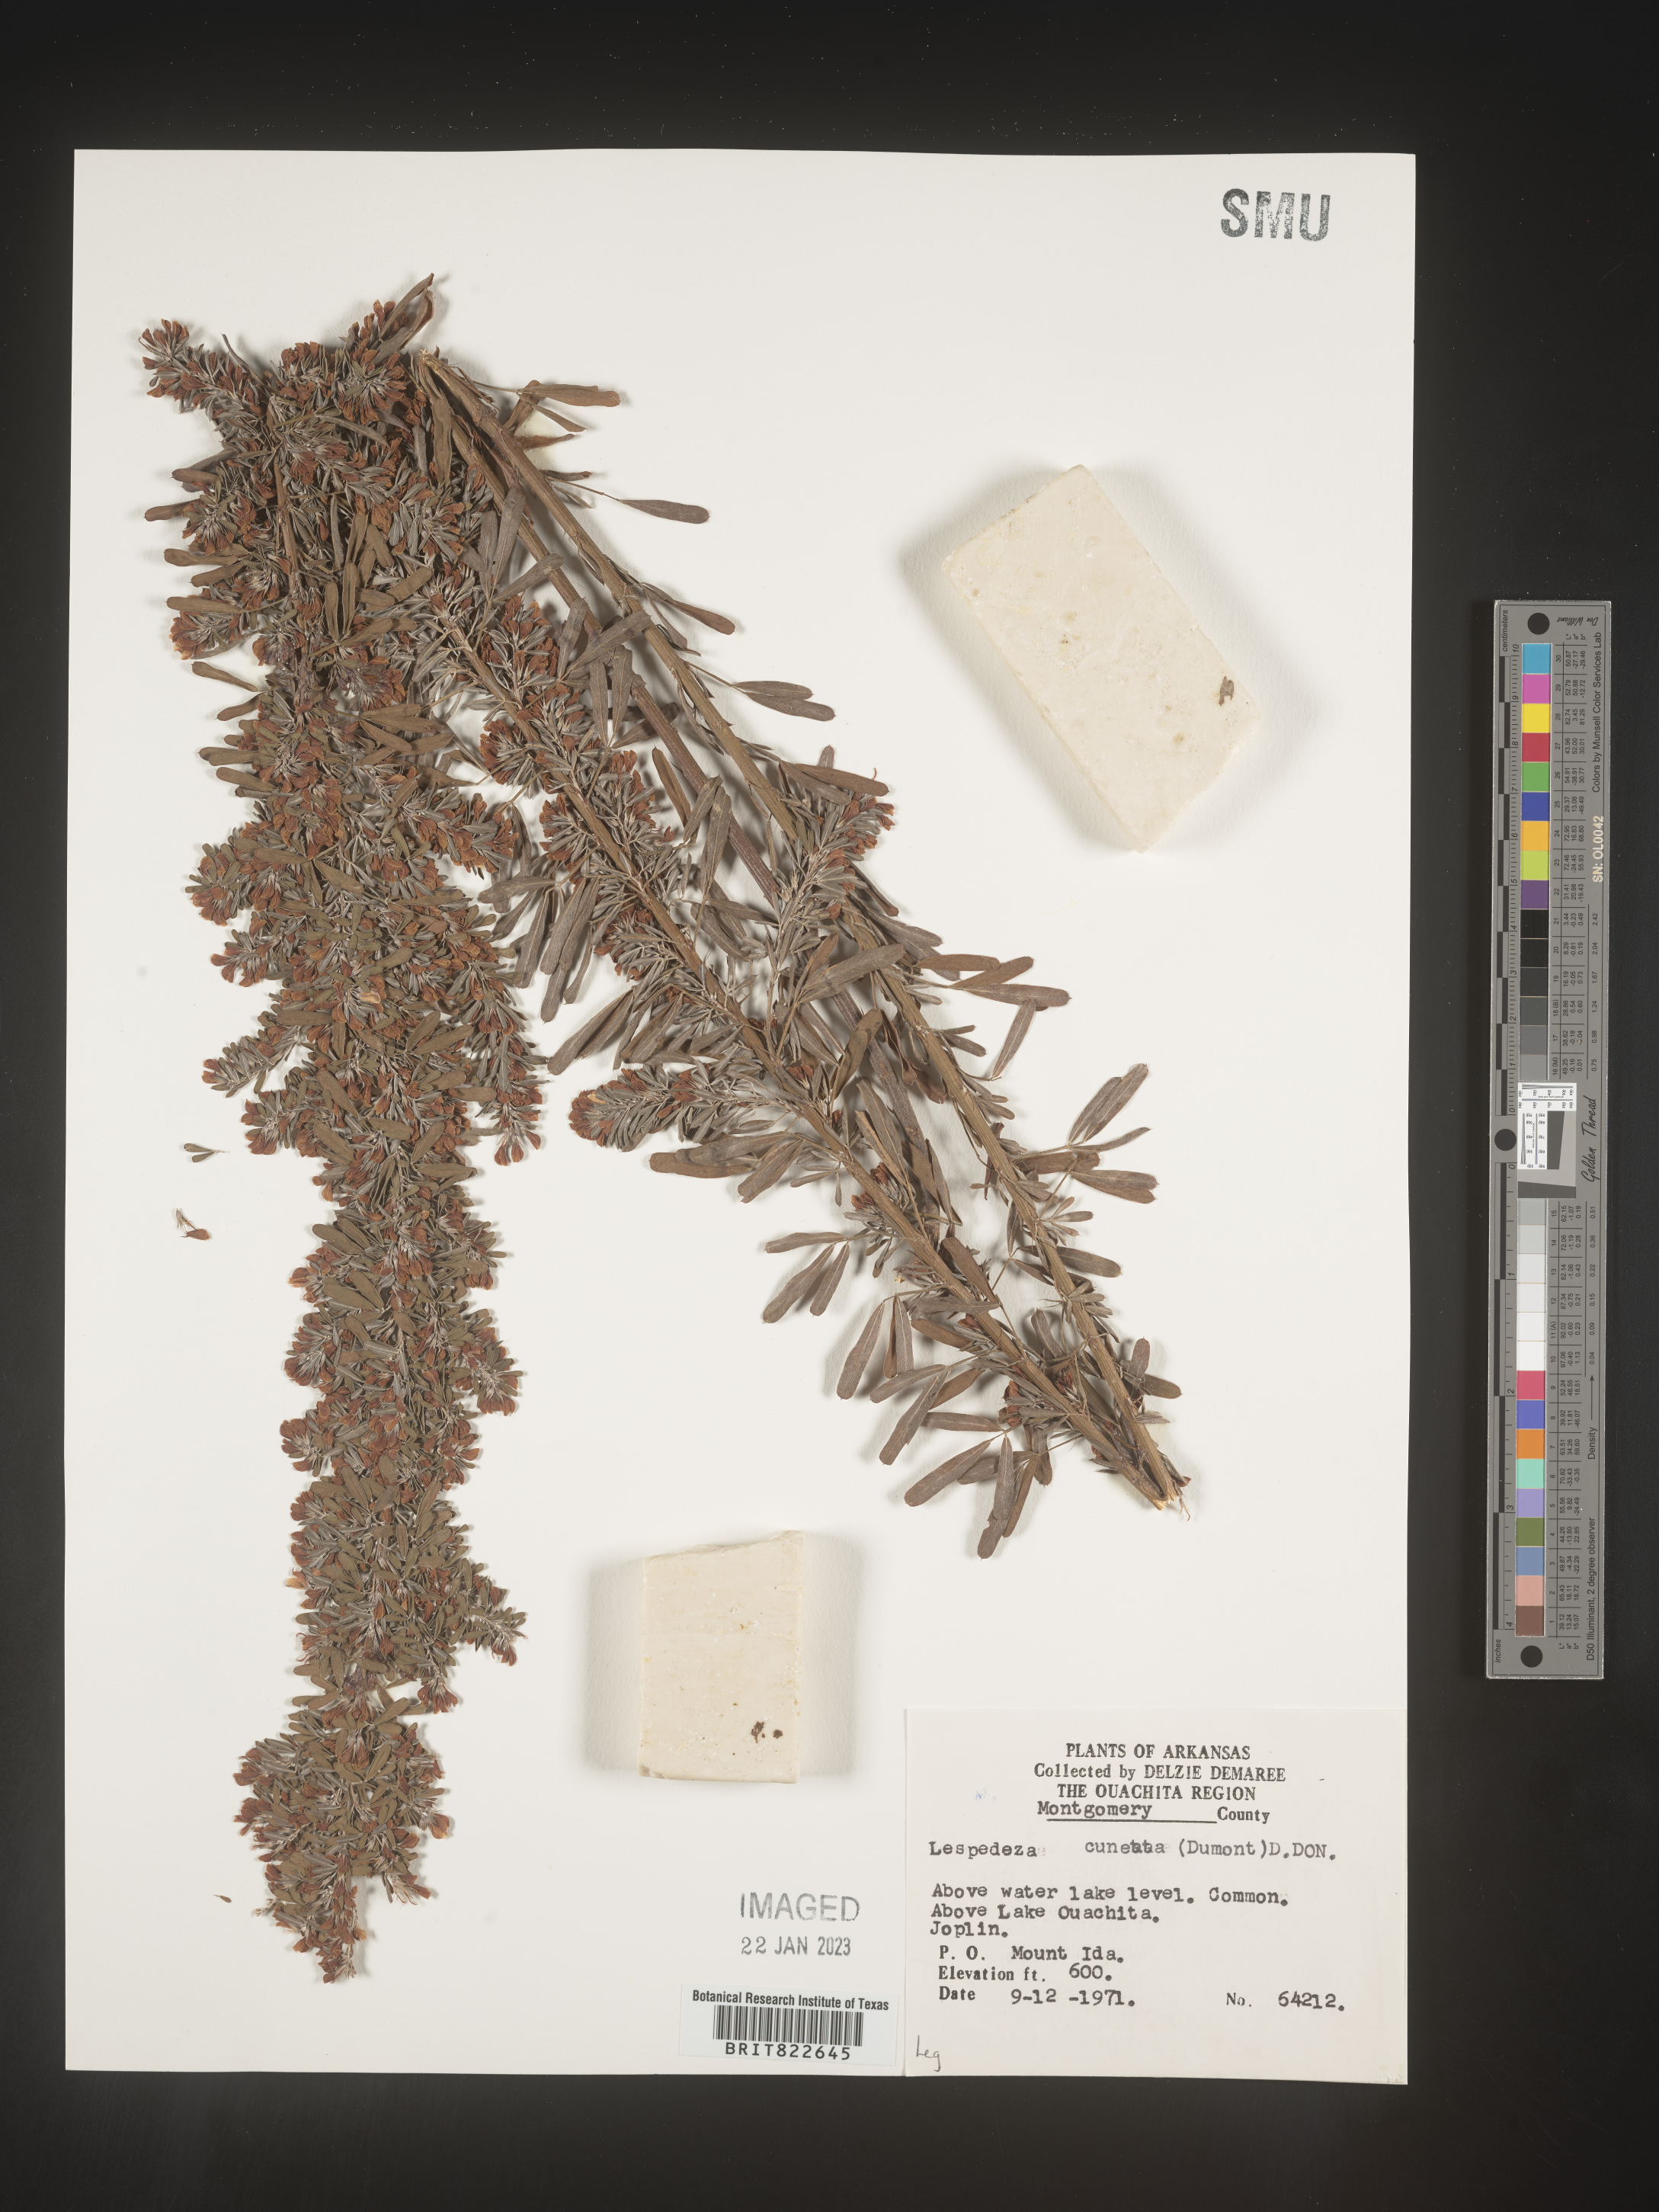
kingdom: Plantae
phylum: Tracheophyta
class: Magnoliopsida
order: Fabales
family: Fabaceae
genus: Lespedeza
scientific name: Lespedeza cuneata
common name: Chinese bush-clover
